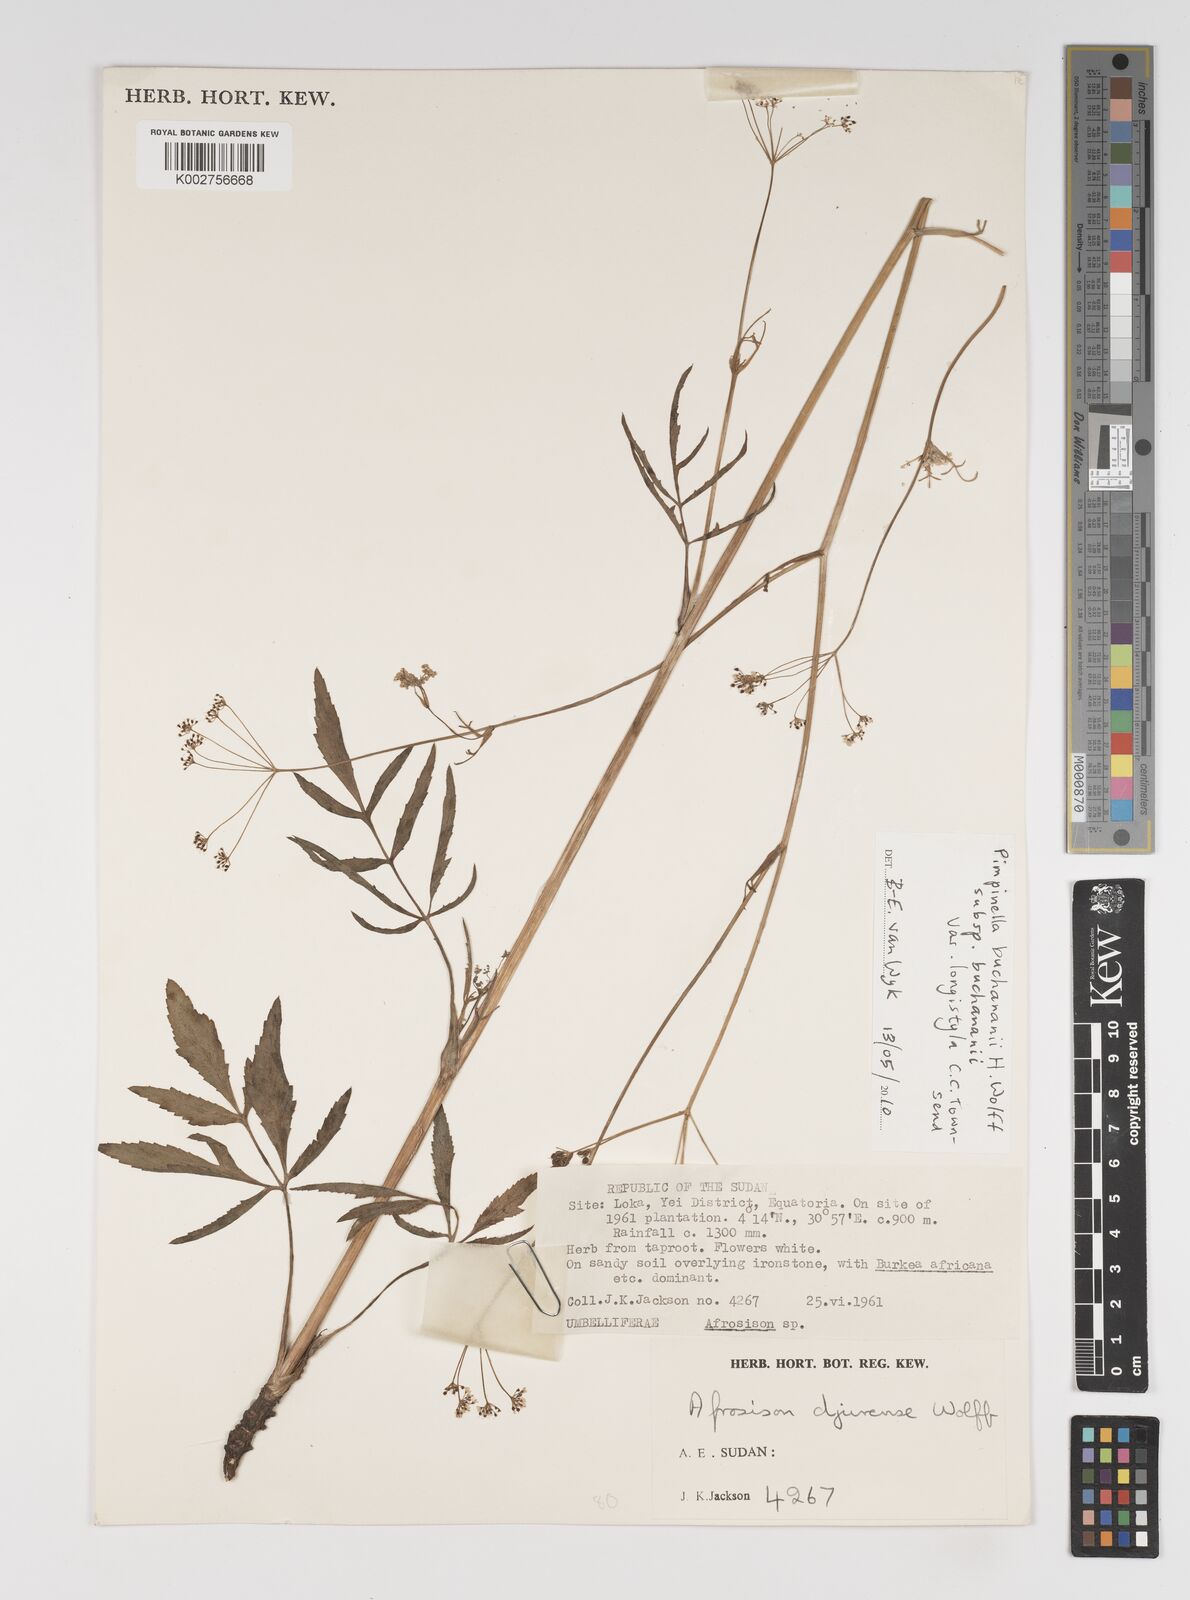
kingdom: Plantae
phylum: Tracheophyta
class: Magnoliopsida
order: Apiales
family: Apiaceae
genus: Pimpinella
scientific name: Pimpinella
